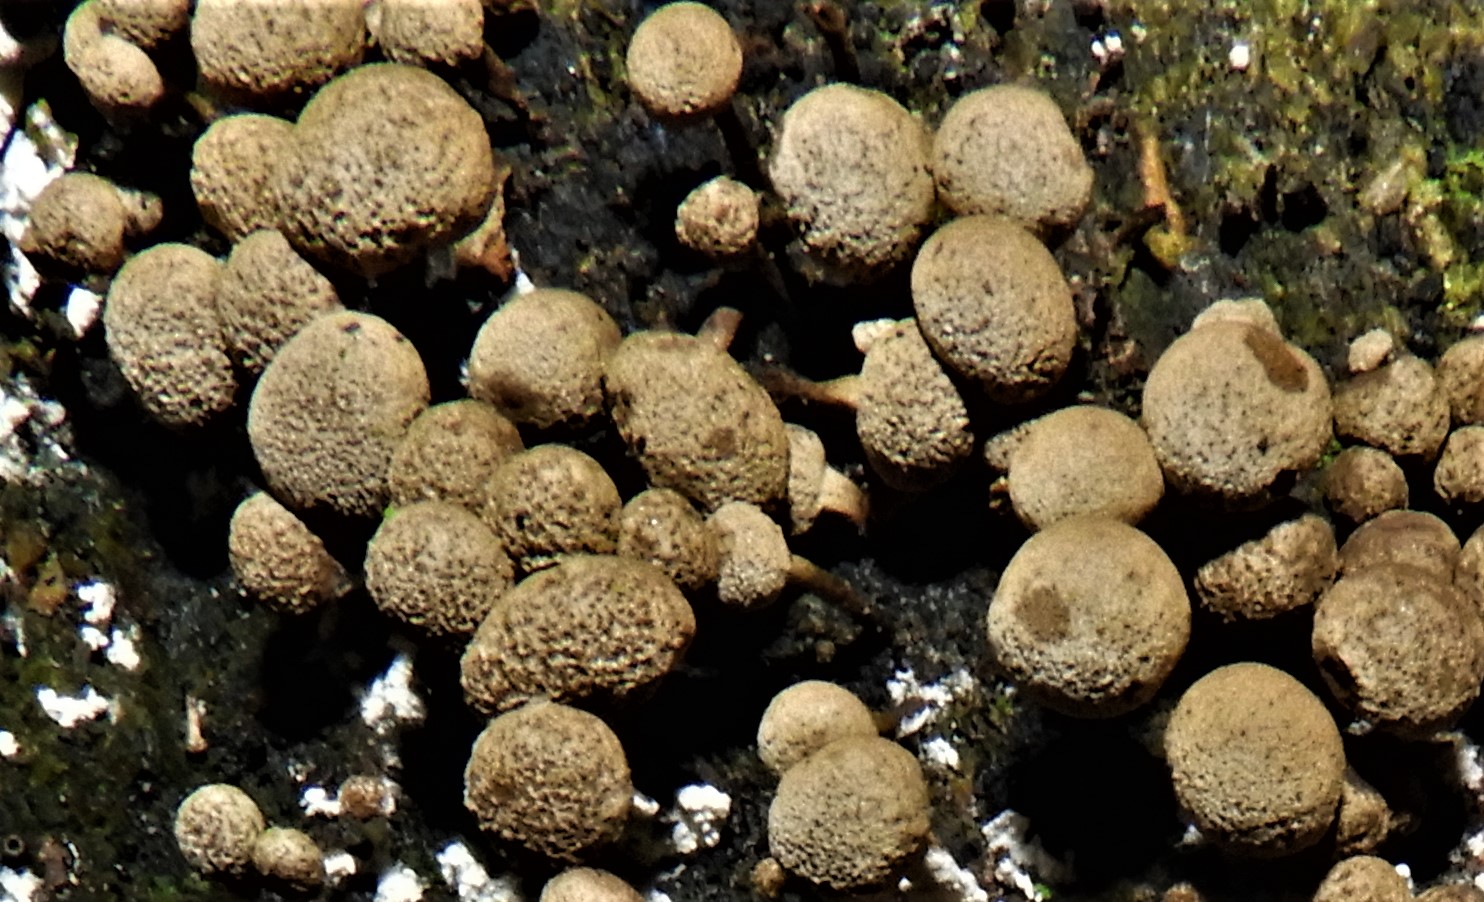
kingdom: Fungi
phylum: Basidiomycota
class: Atractiellomycetes
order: Atractiellales
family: Phleogenaceae
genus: Phleogena
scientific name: Phleogena faginea
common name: pudderkølle
